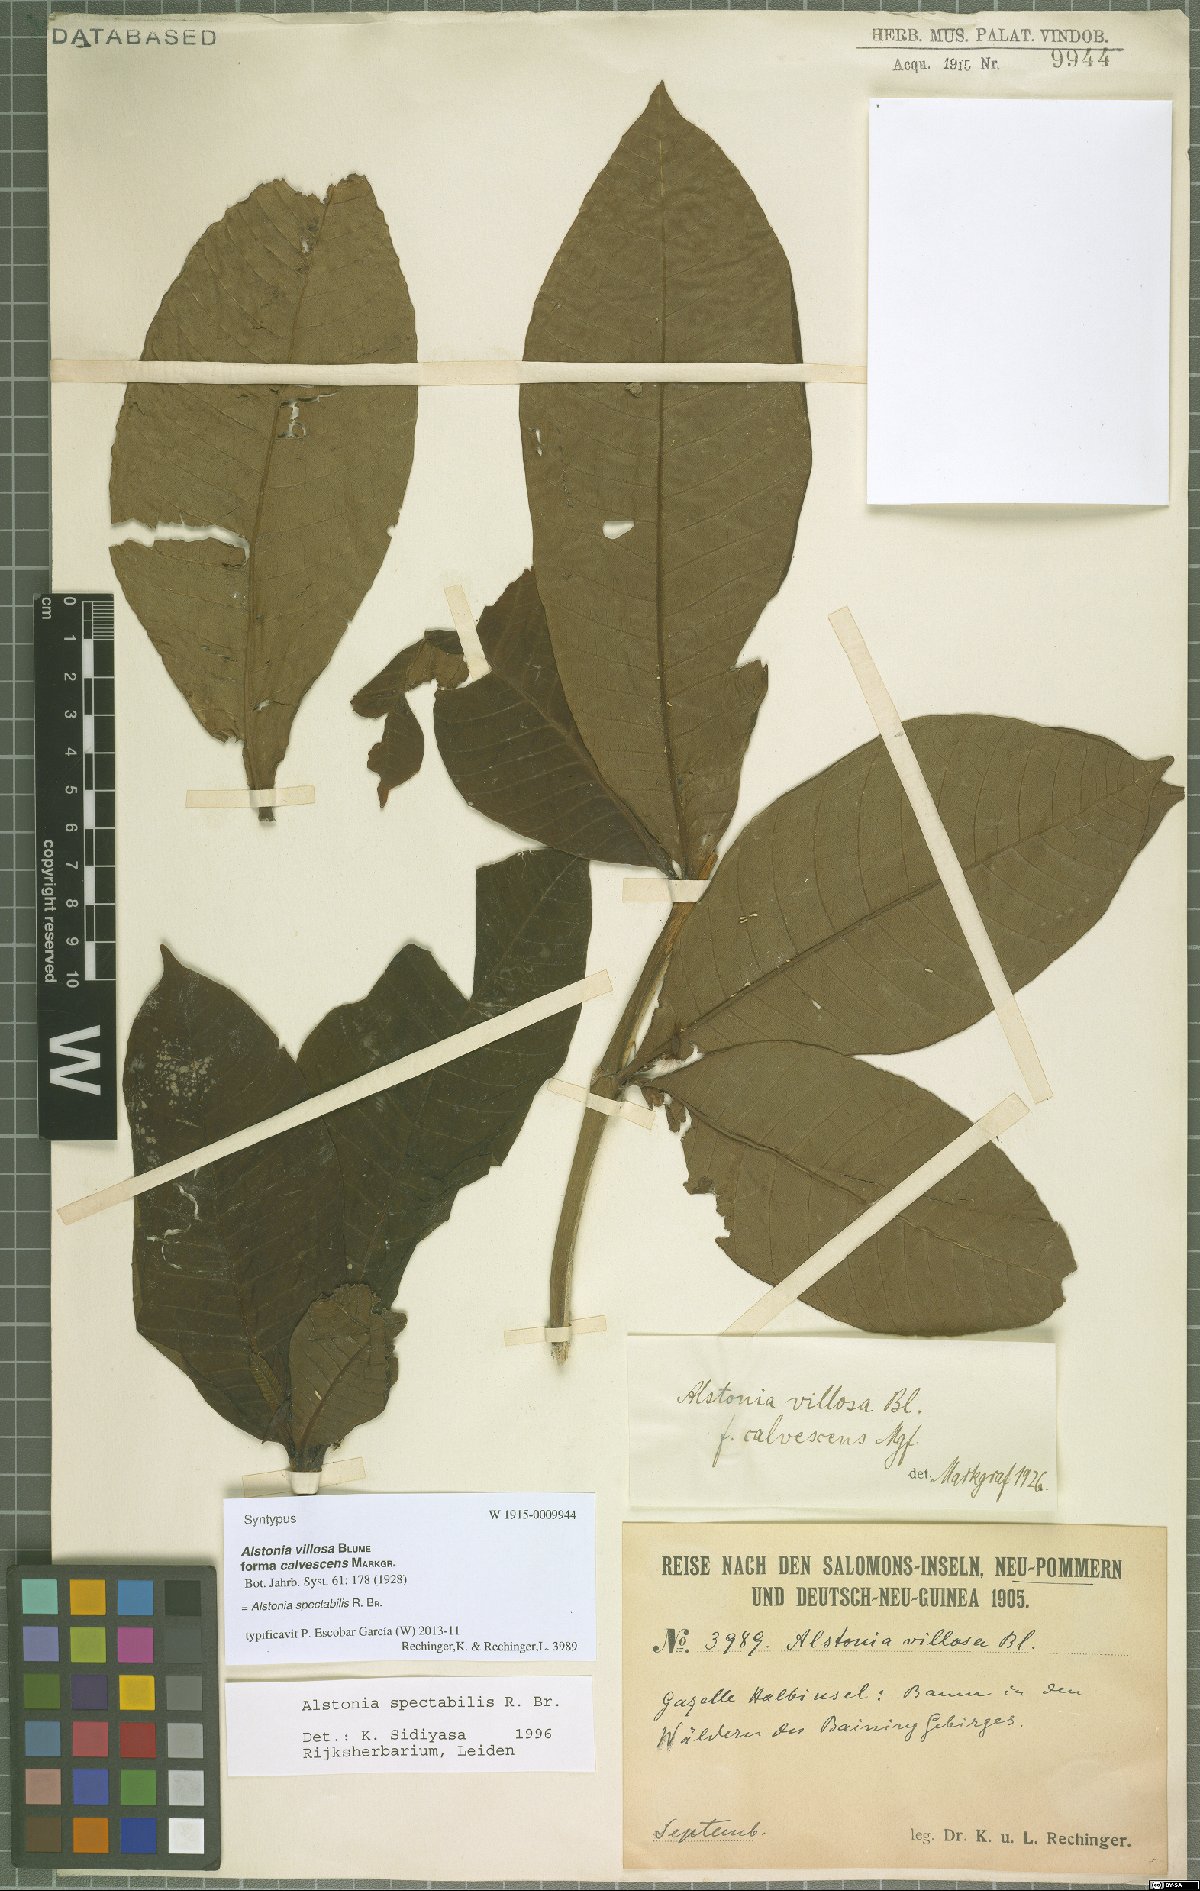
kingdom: Plantae
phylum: Tracheophyta
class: Magnoliopsida
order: Gentianales
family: Apocynaceae
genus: Alstonia
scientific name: Alstonia spectabilis
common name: Milky yellowwood
